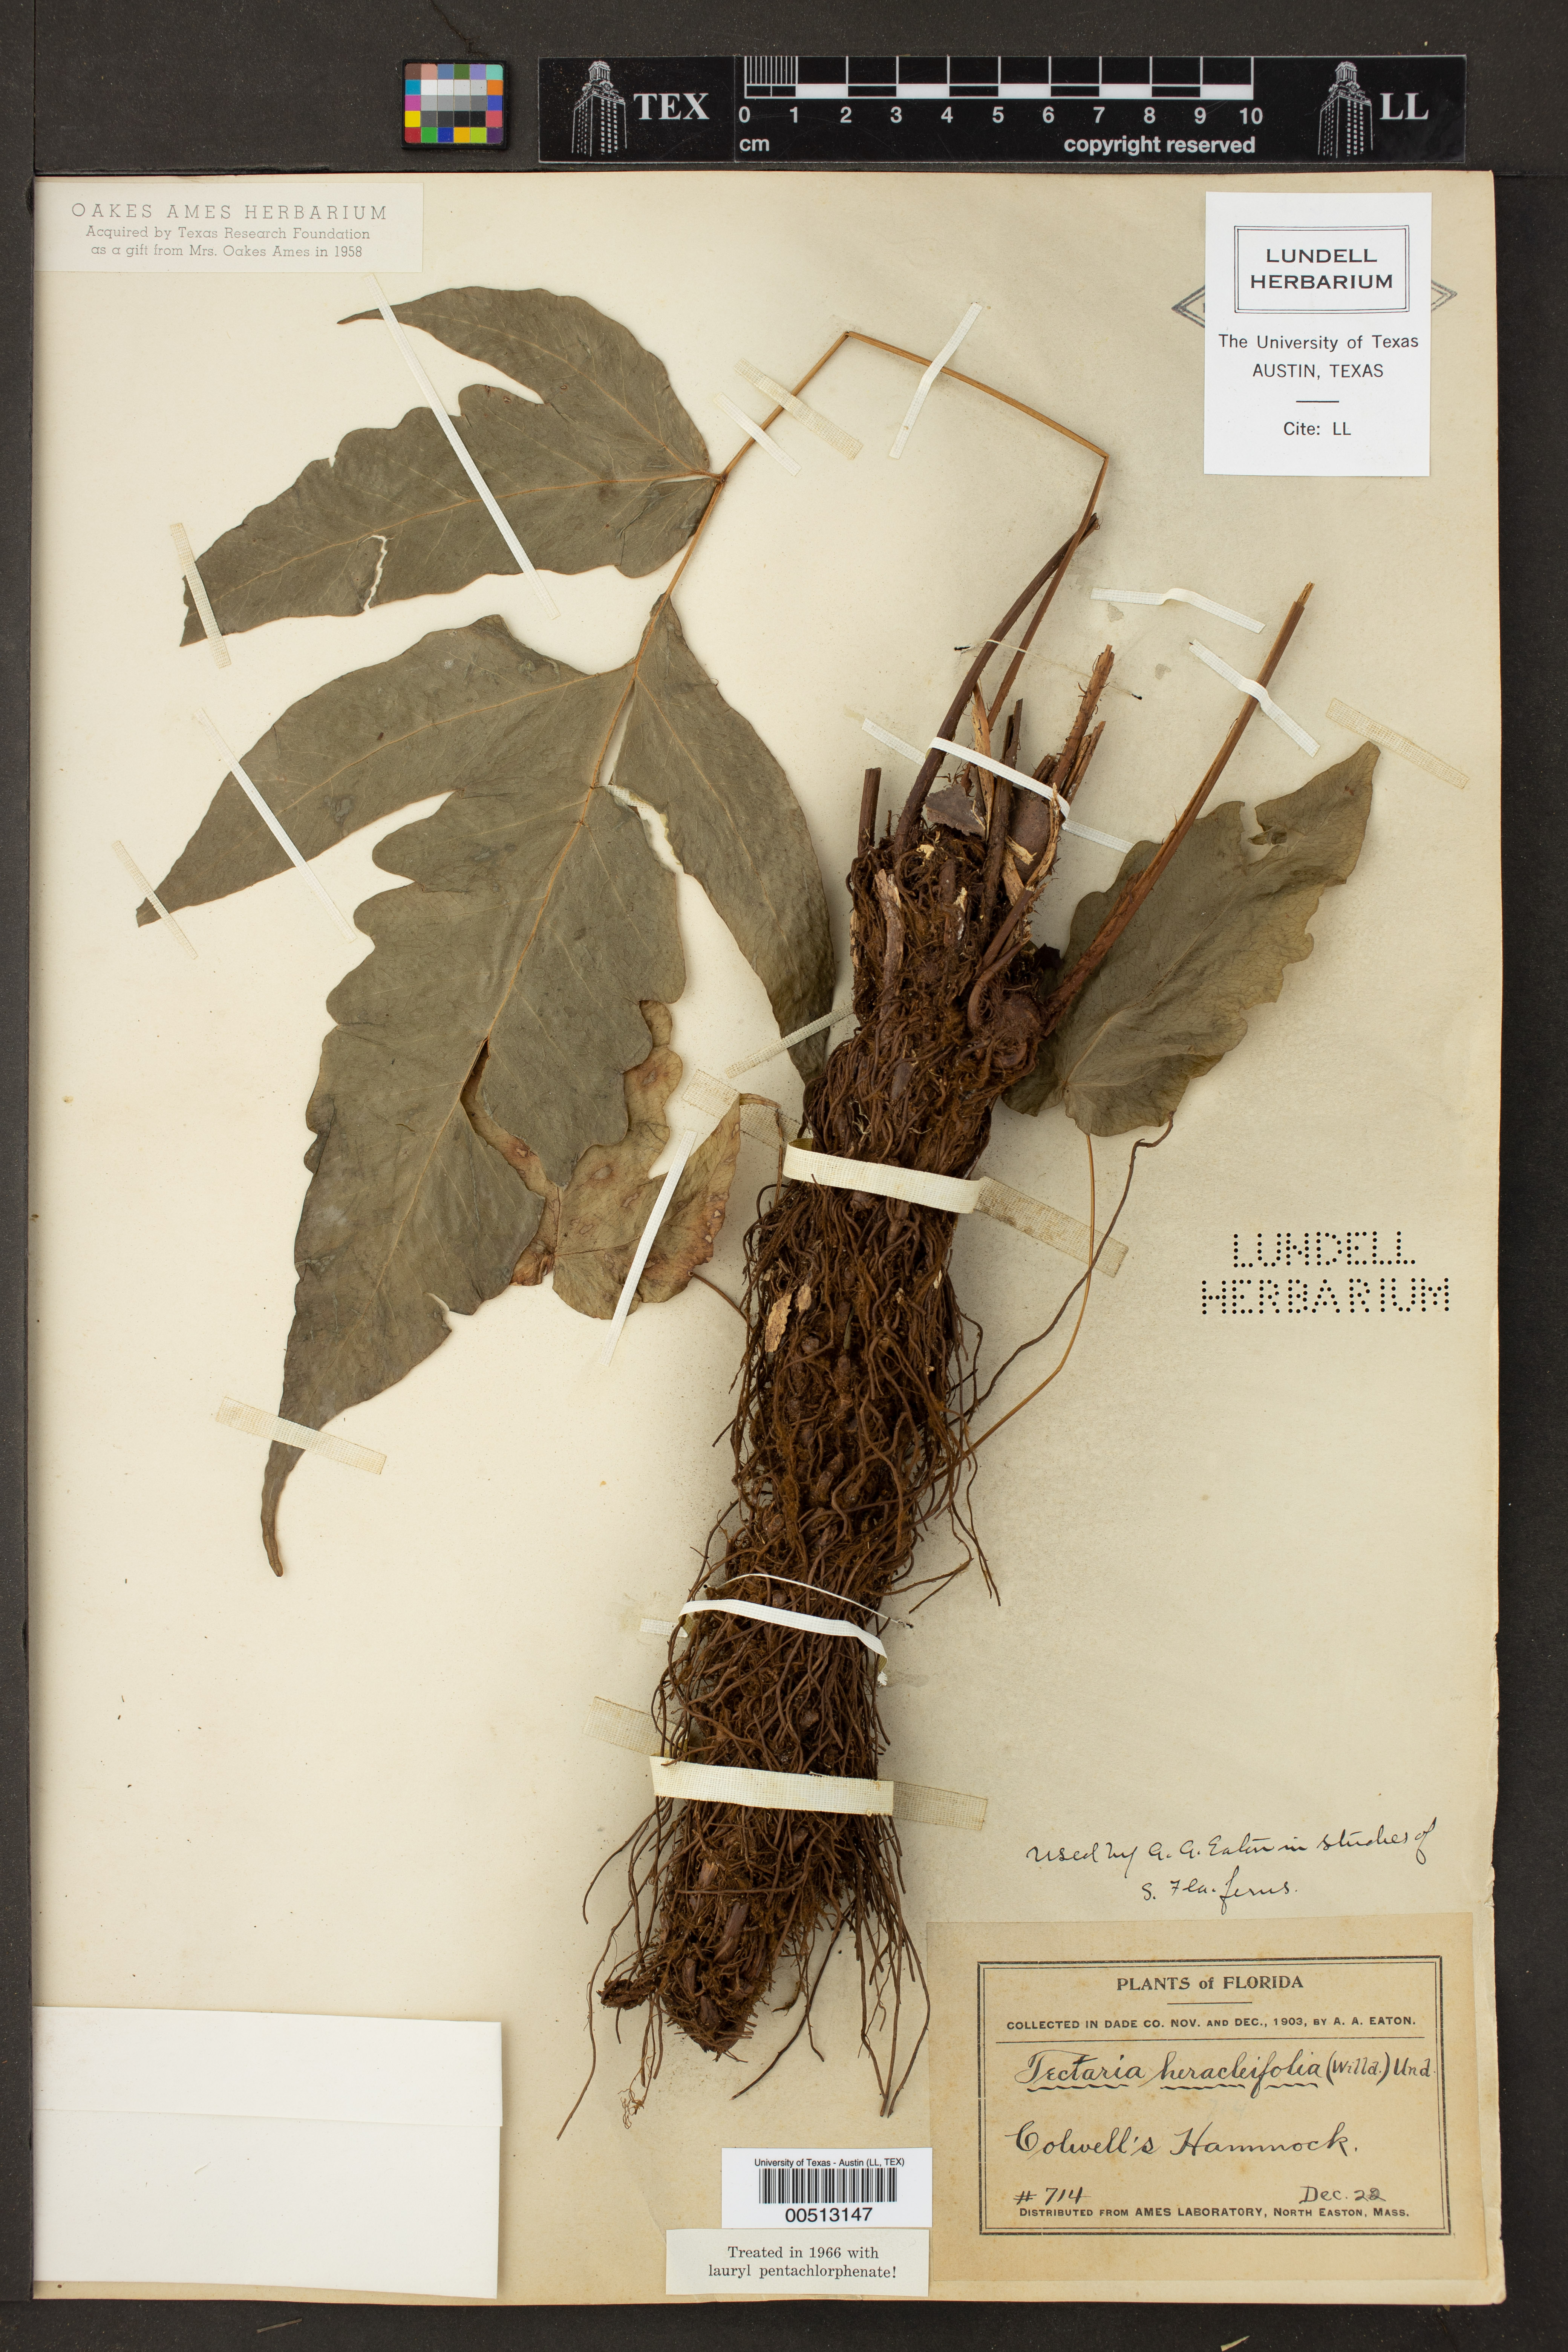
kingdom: Plantae
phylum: Tracheophyta
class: Polypodiopsida
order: Polypodiales
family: Tectariaceae
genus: Tectaria
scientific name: Tectaria heracleifolia
